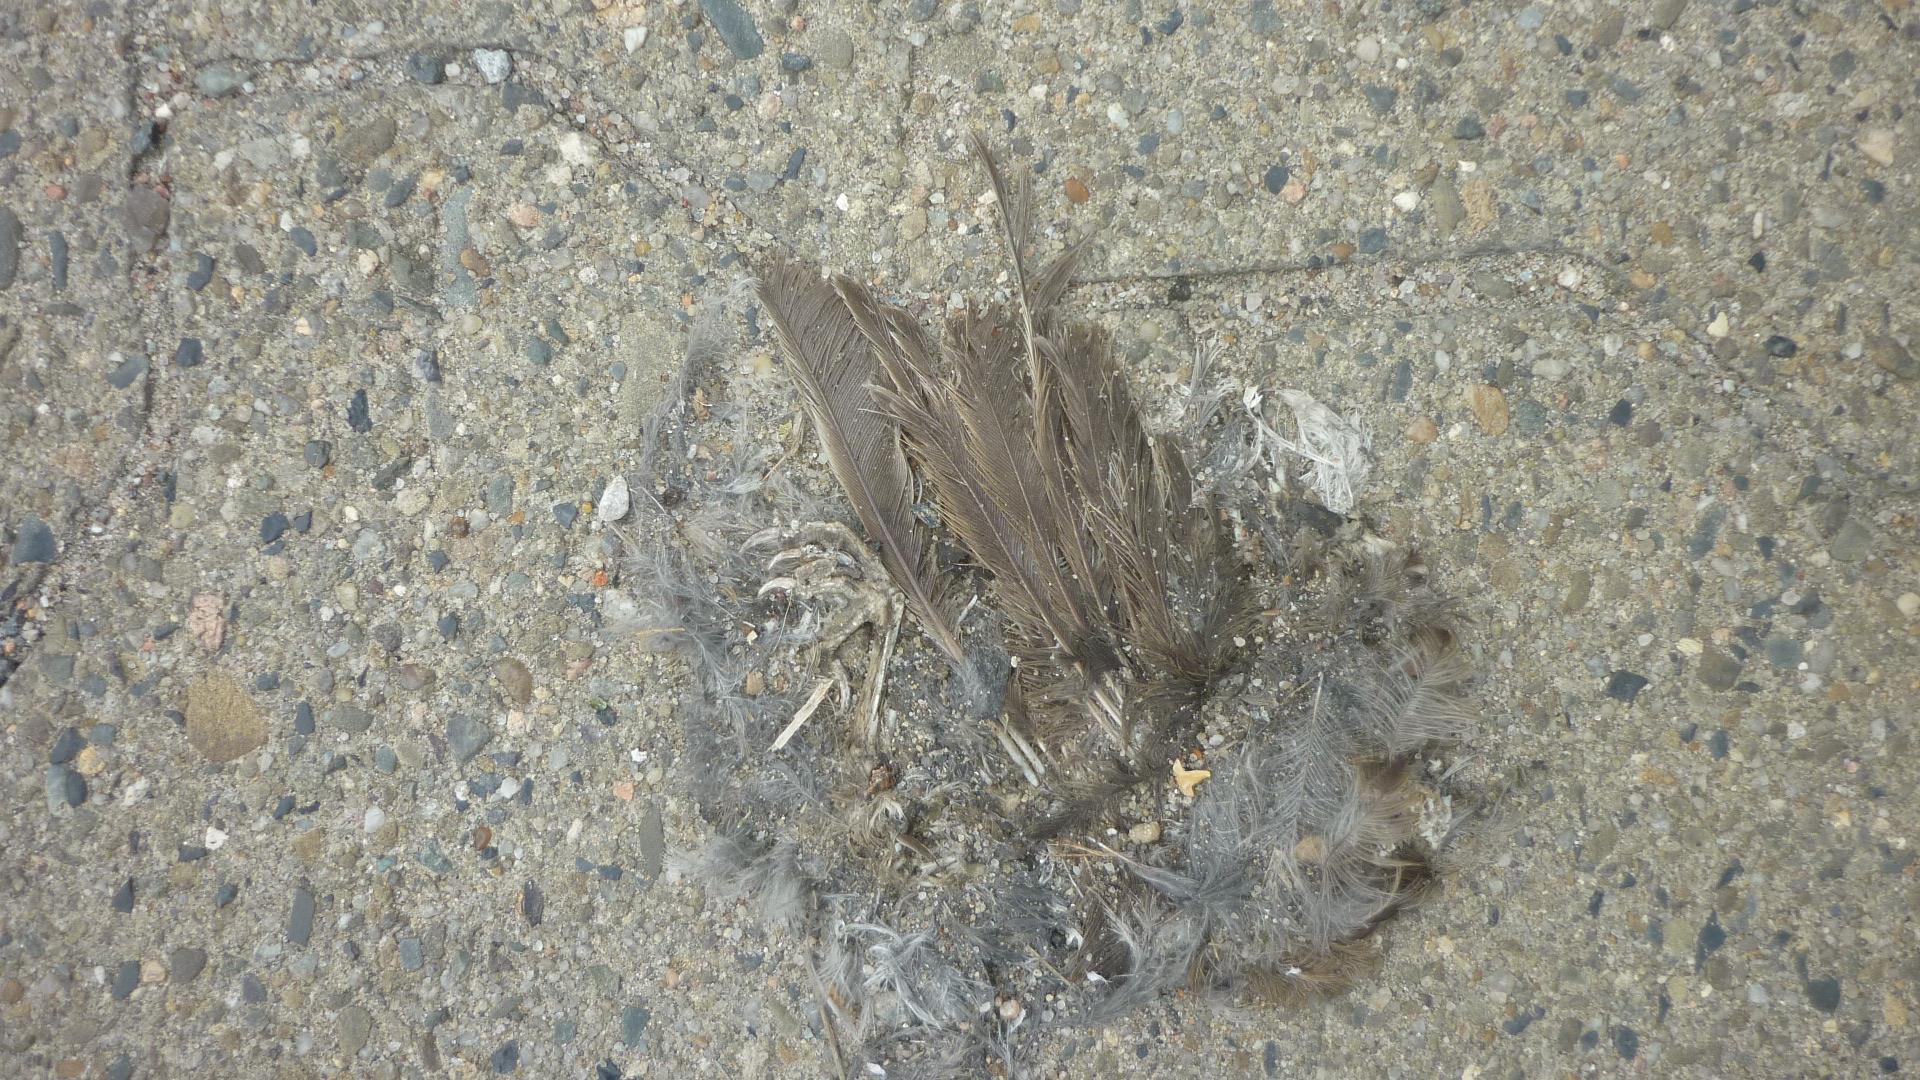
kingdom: Animalia
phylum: Chordata
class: Aves
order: Passeriformes
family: Passeridae
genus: Passer
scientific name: Passer domesticus
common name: House sparrow
